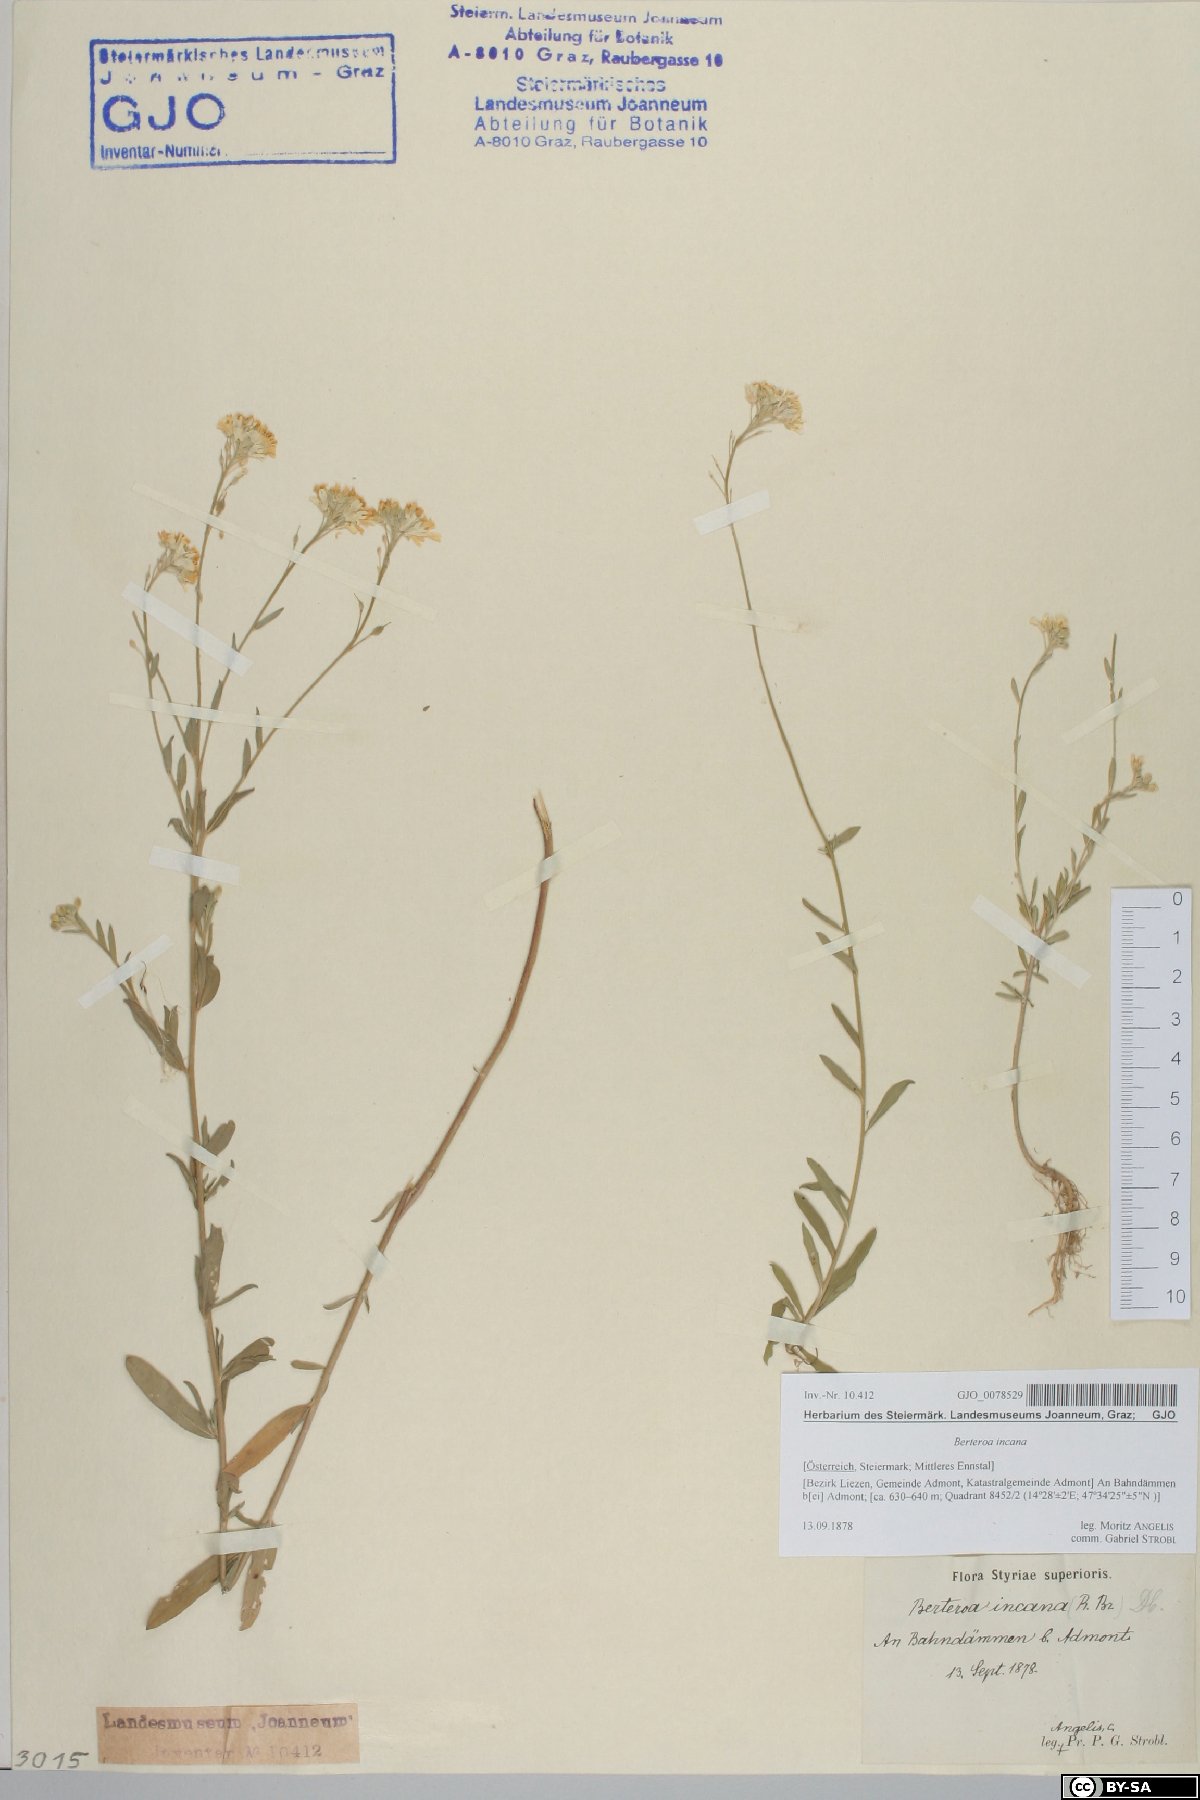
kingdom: Plantae
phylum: Tracheophyta
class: Magnoliopsida
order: Brassicales
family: Brassicaceae
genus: Berteroa
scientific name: Berteroa incana
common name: Hoary alison
